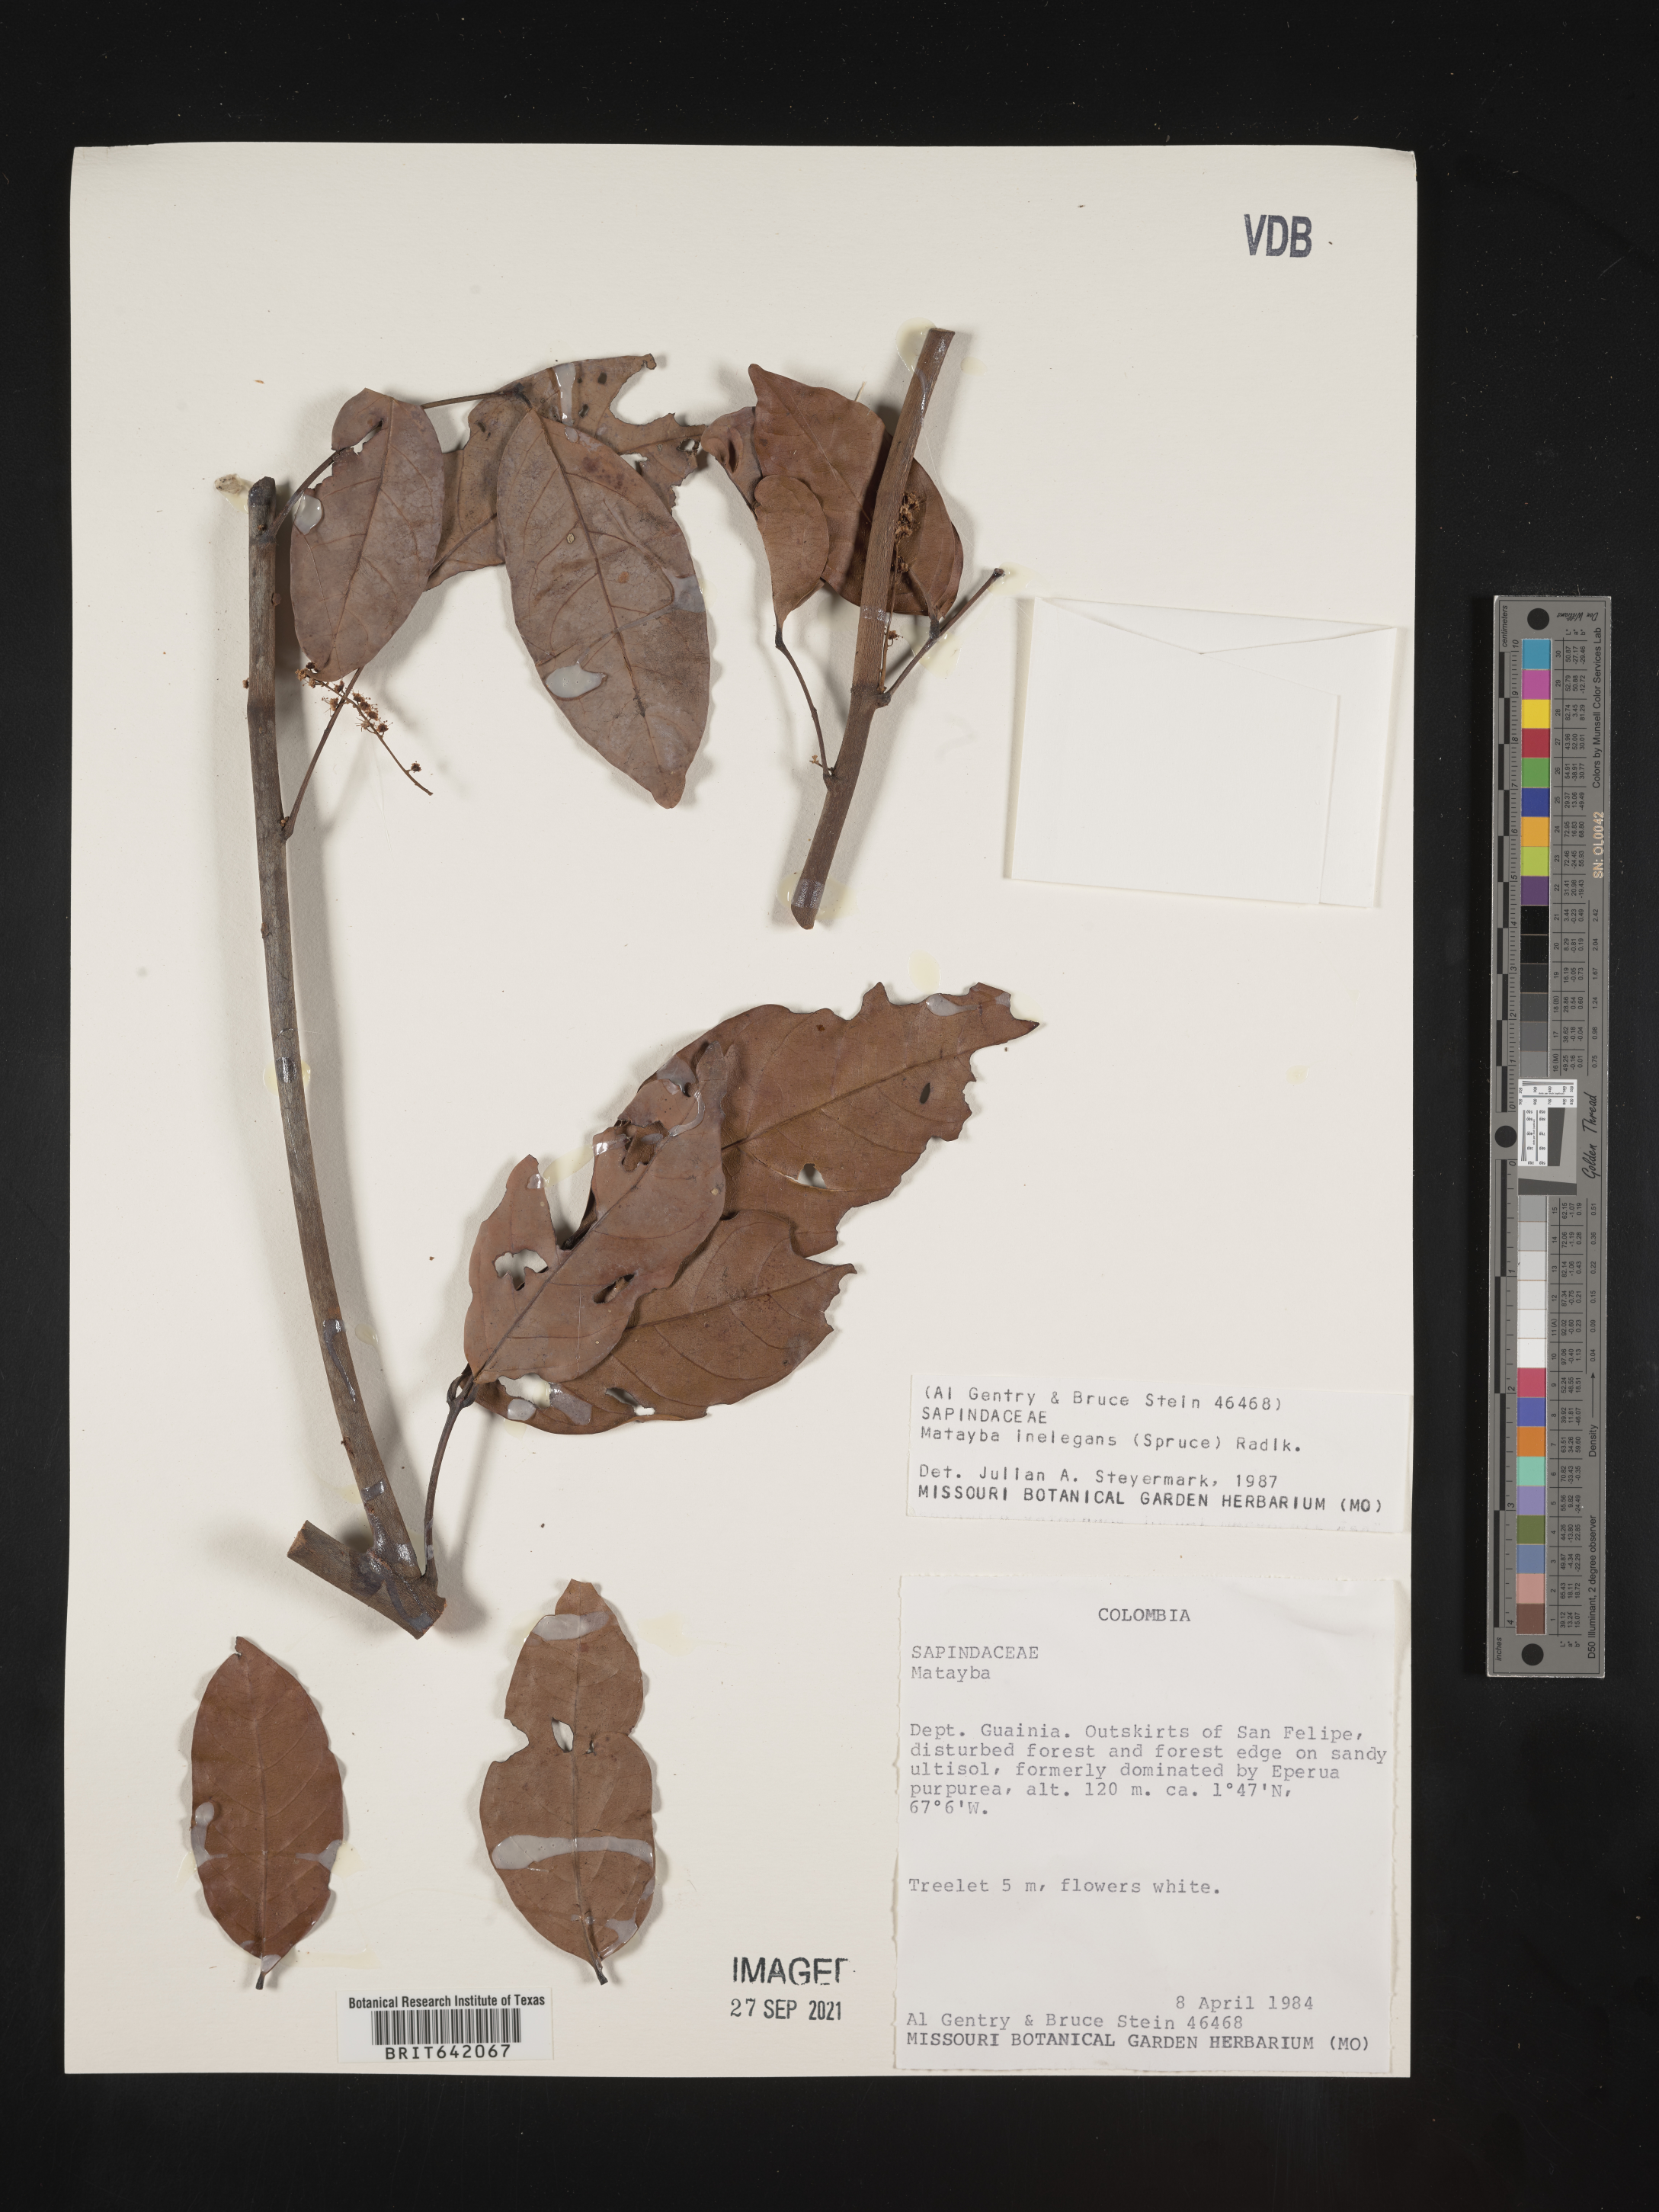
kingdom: Plantae
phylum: Tracheophyta
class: Magnoliopsida
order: Sapindales
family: Sapindaceae
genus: Matayba
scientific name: Matayba
